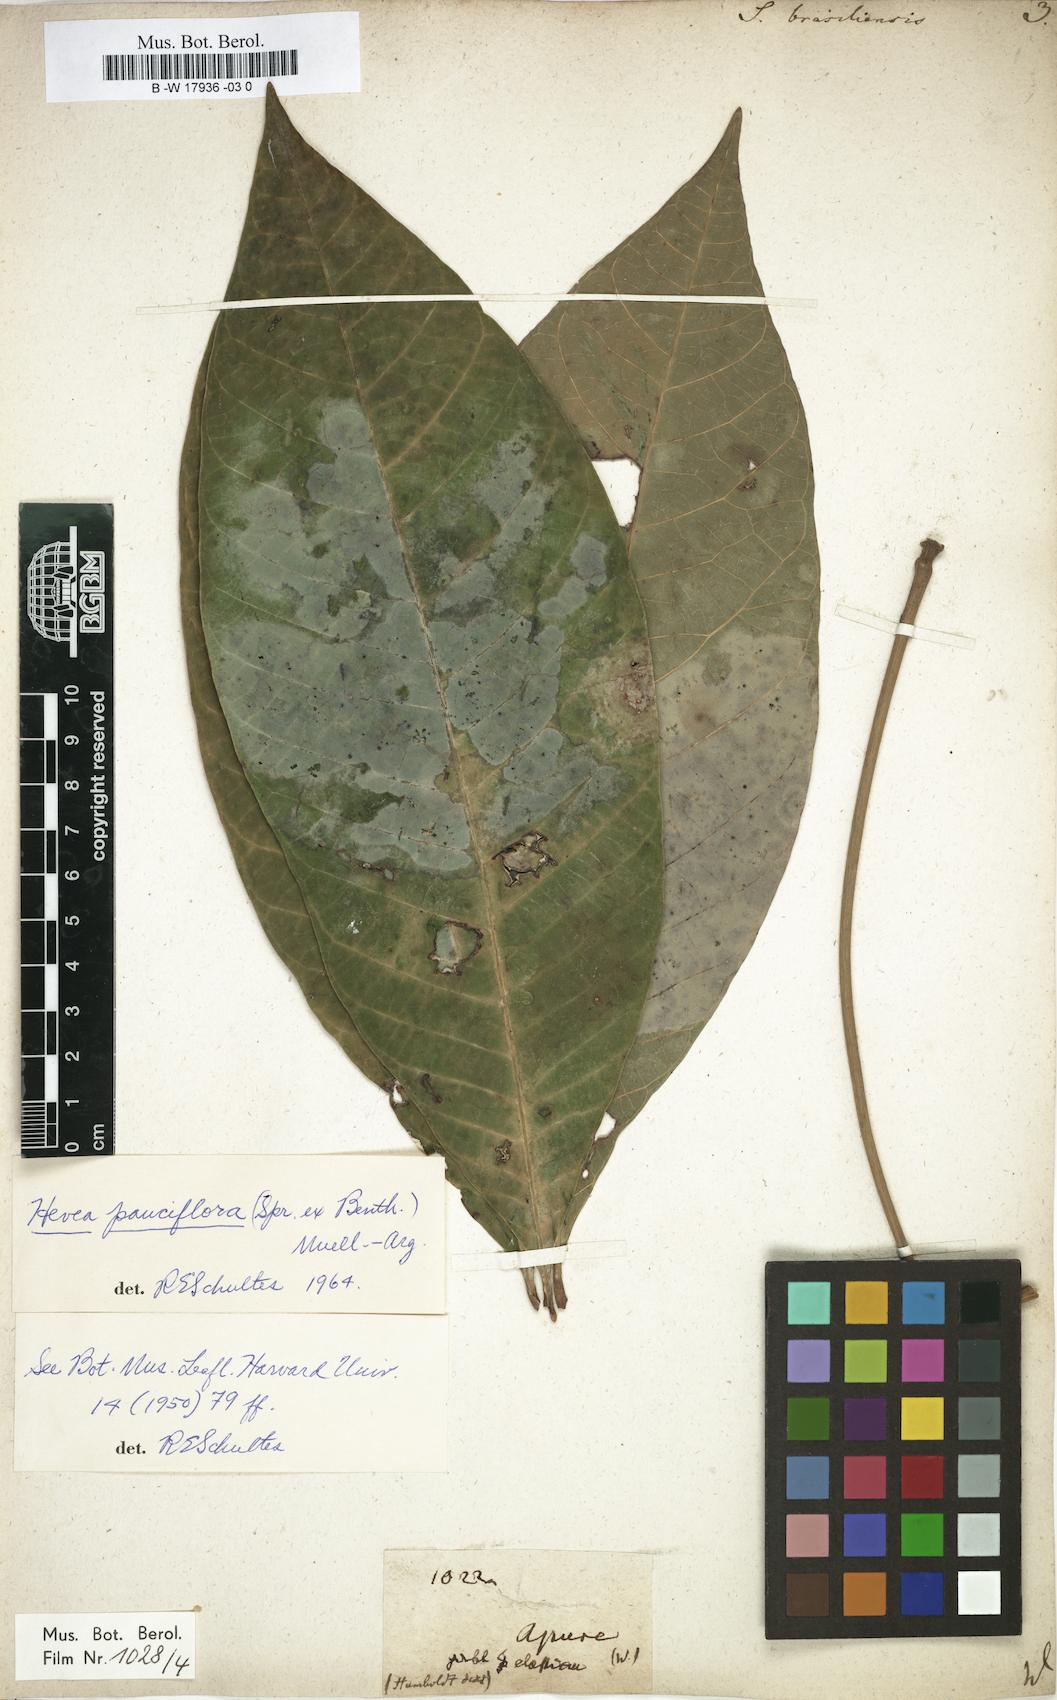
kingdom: Plantae
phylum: Tracheophyta
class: Magnoliopsida
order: Malpighiales
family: Euphorbiaceae
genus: Hevea
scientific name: Hevea brasiliensis
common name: Natural rubber
